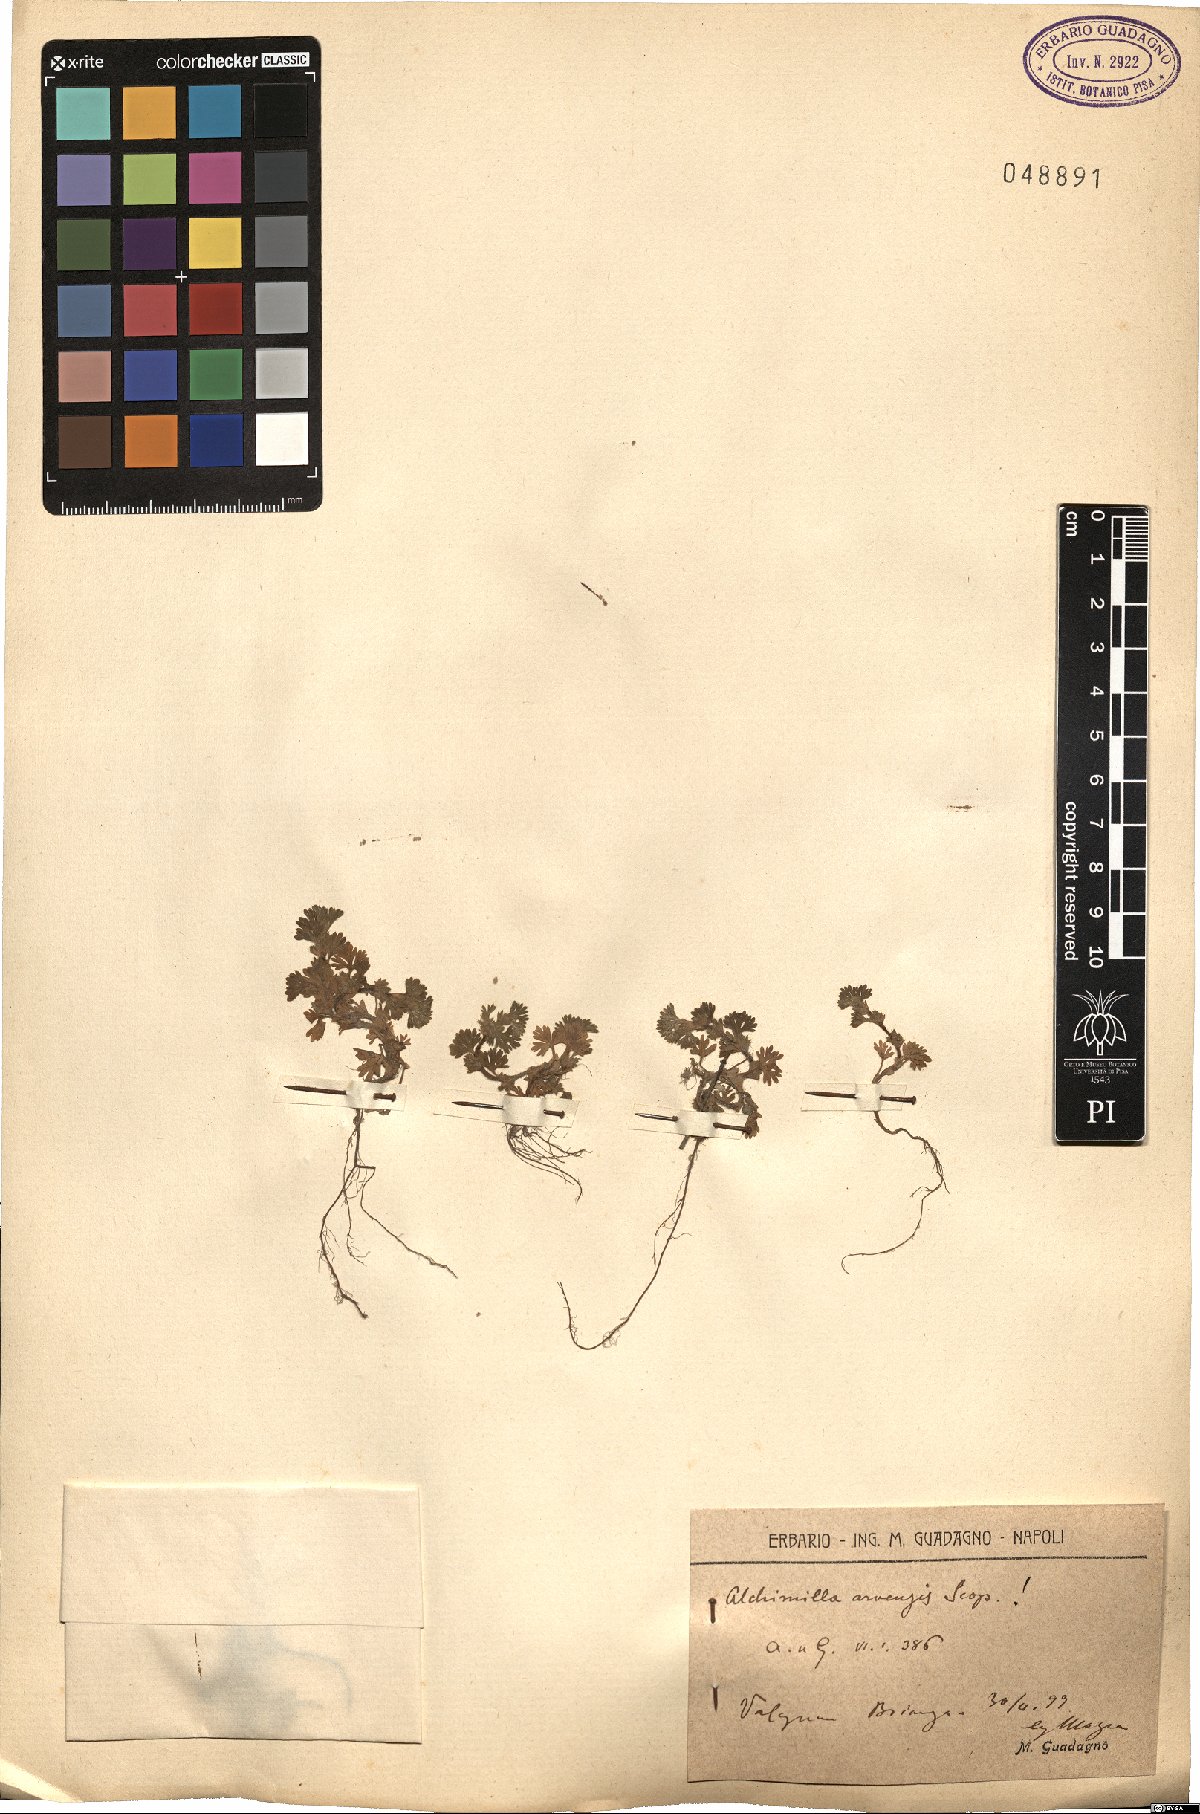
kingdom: Plantae
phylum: Tracheophyta
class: Magnoliopsida
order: Rosales
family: Rosaceae
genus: Aphanes
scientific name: Aphanes arvensis
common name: Parsley-piert
